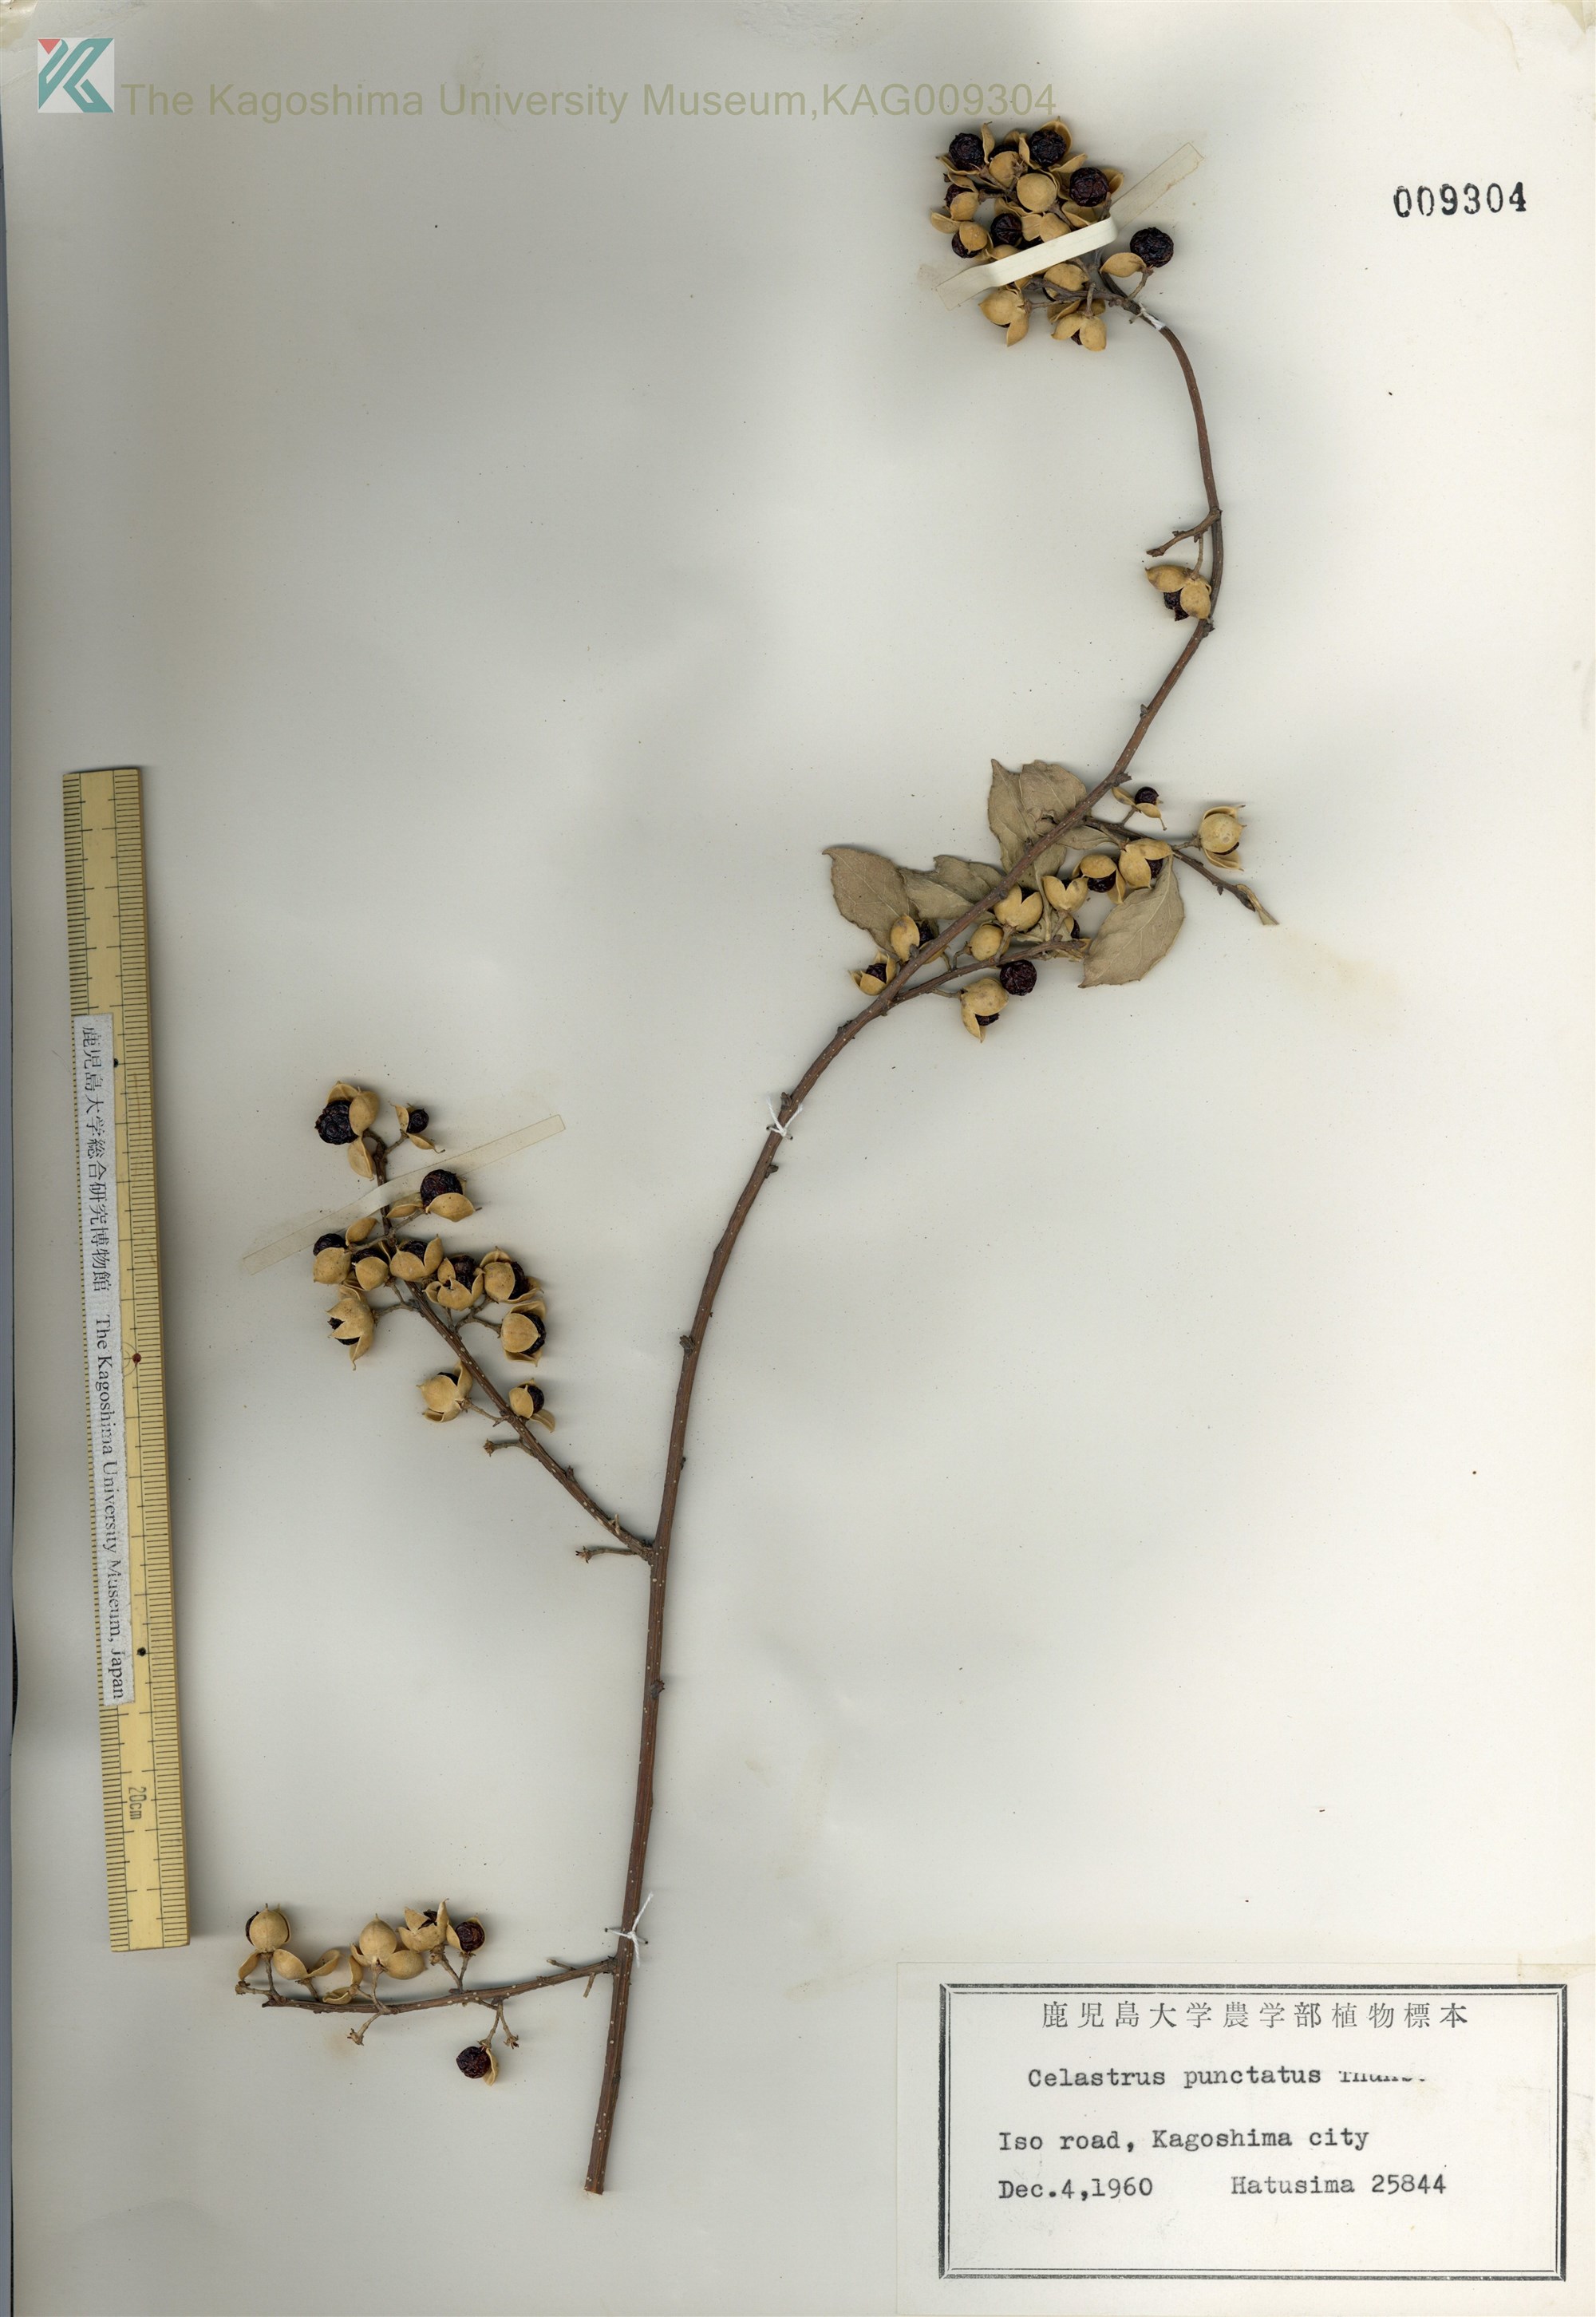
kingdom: Plantae
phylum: Tracheophyta
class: Magnoliopsida
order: Celastrales
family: Celastraceae
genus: Celastrus
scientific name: Celastrus punctatus
